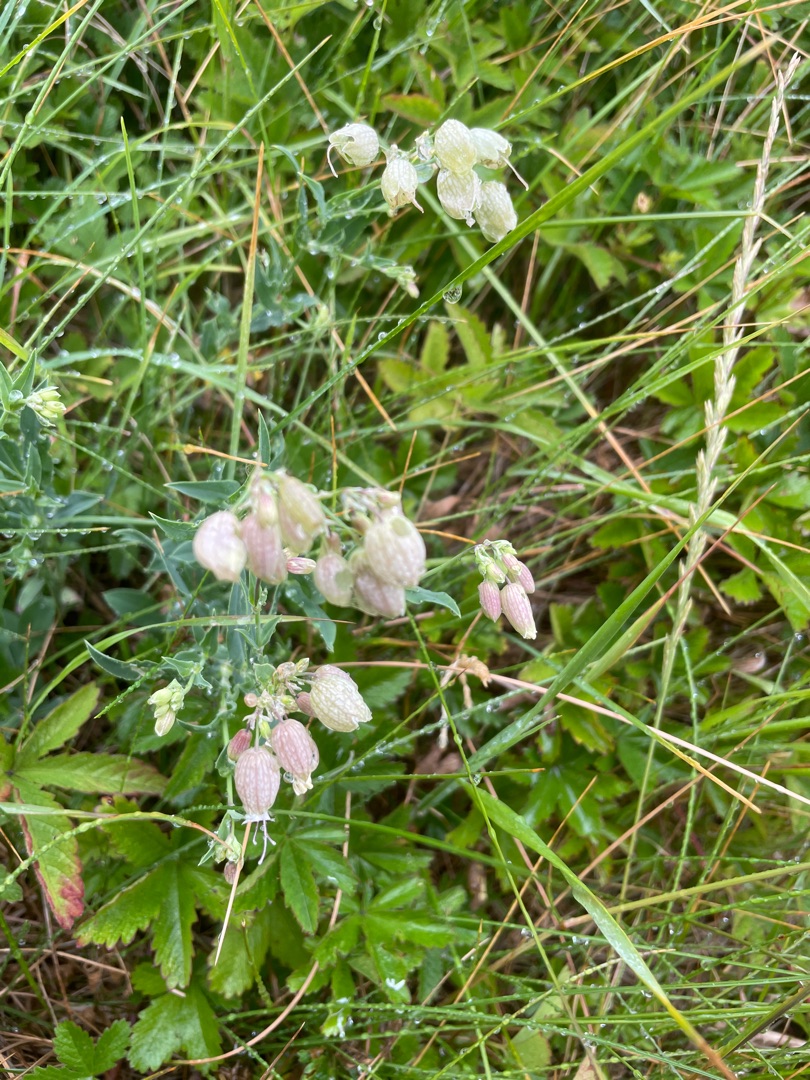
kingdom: Plantae
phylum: Tracheophyta
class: Magnoliopsida
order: Caryophyllales
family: Caryophyllaceae
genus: Silene
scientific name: Silene vulgaris
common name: Blæresmælde
